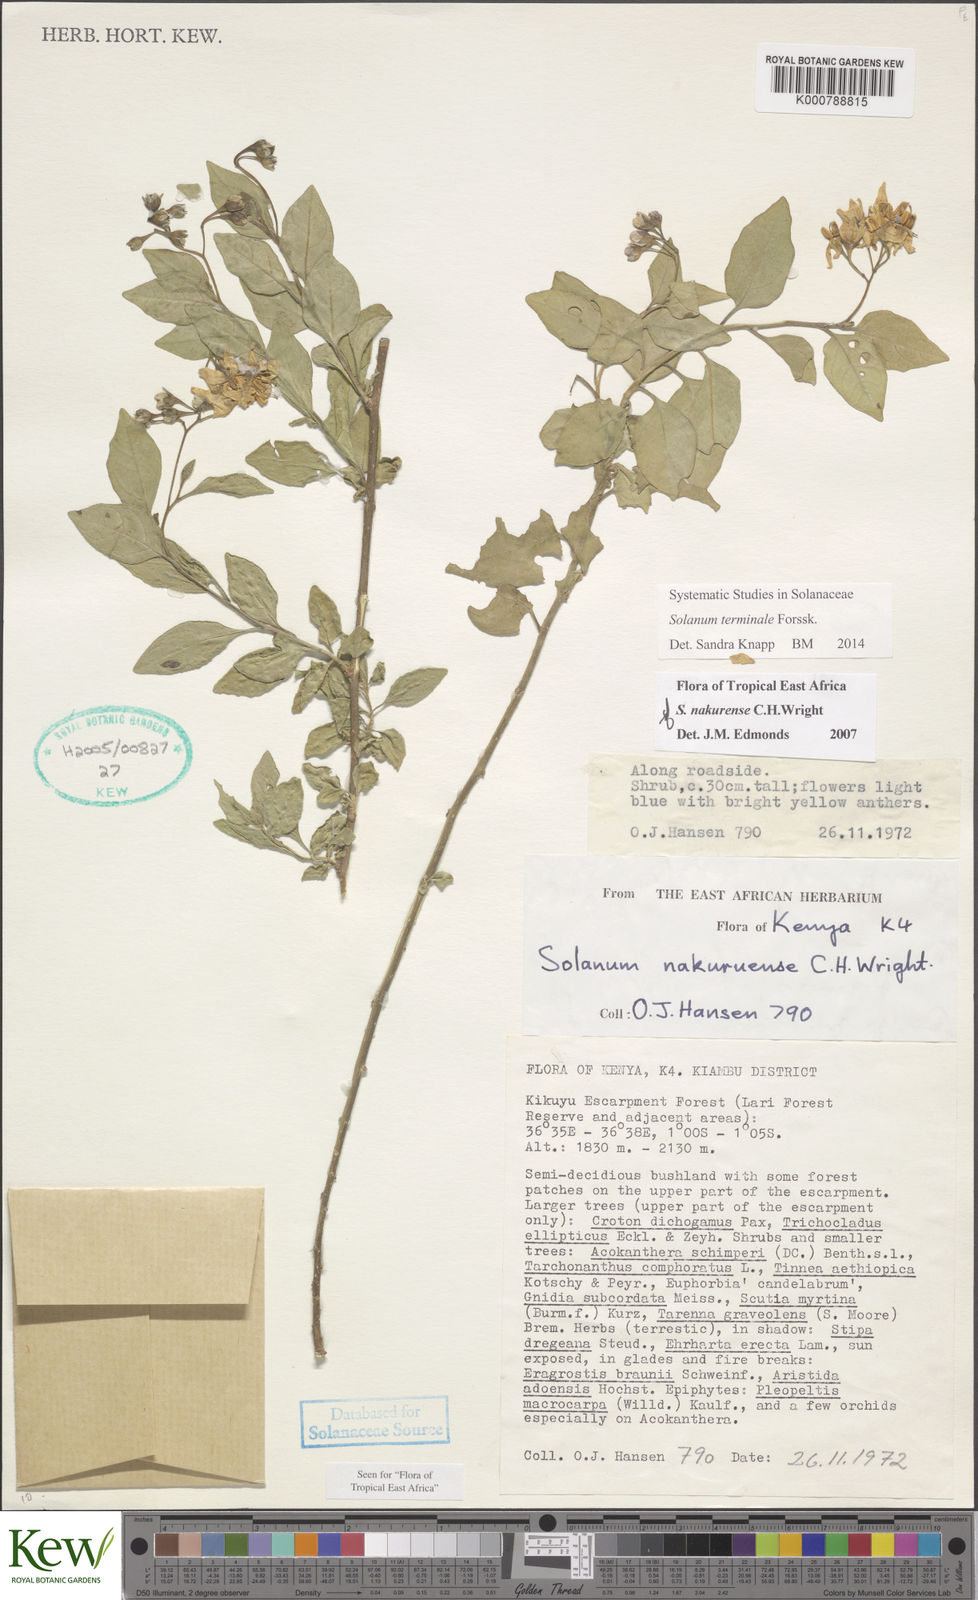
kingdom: Plantae
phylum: Tracheophyta
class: Magnoliopsida
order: Solanales
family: Solanaceae
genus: Solanum
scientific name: Solanum nakurense
